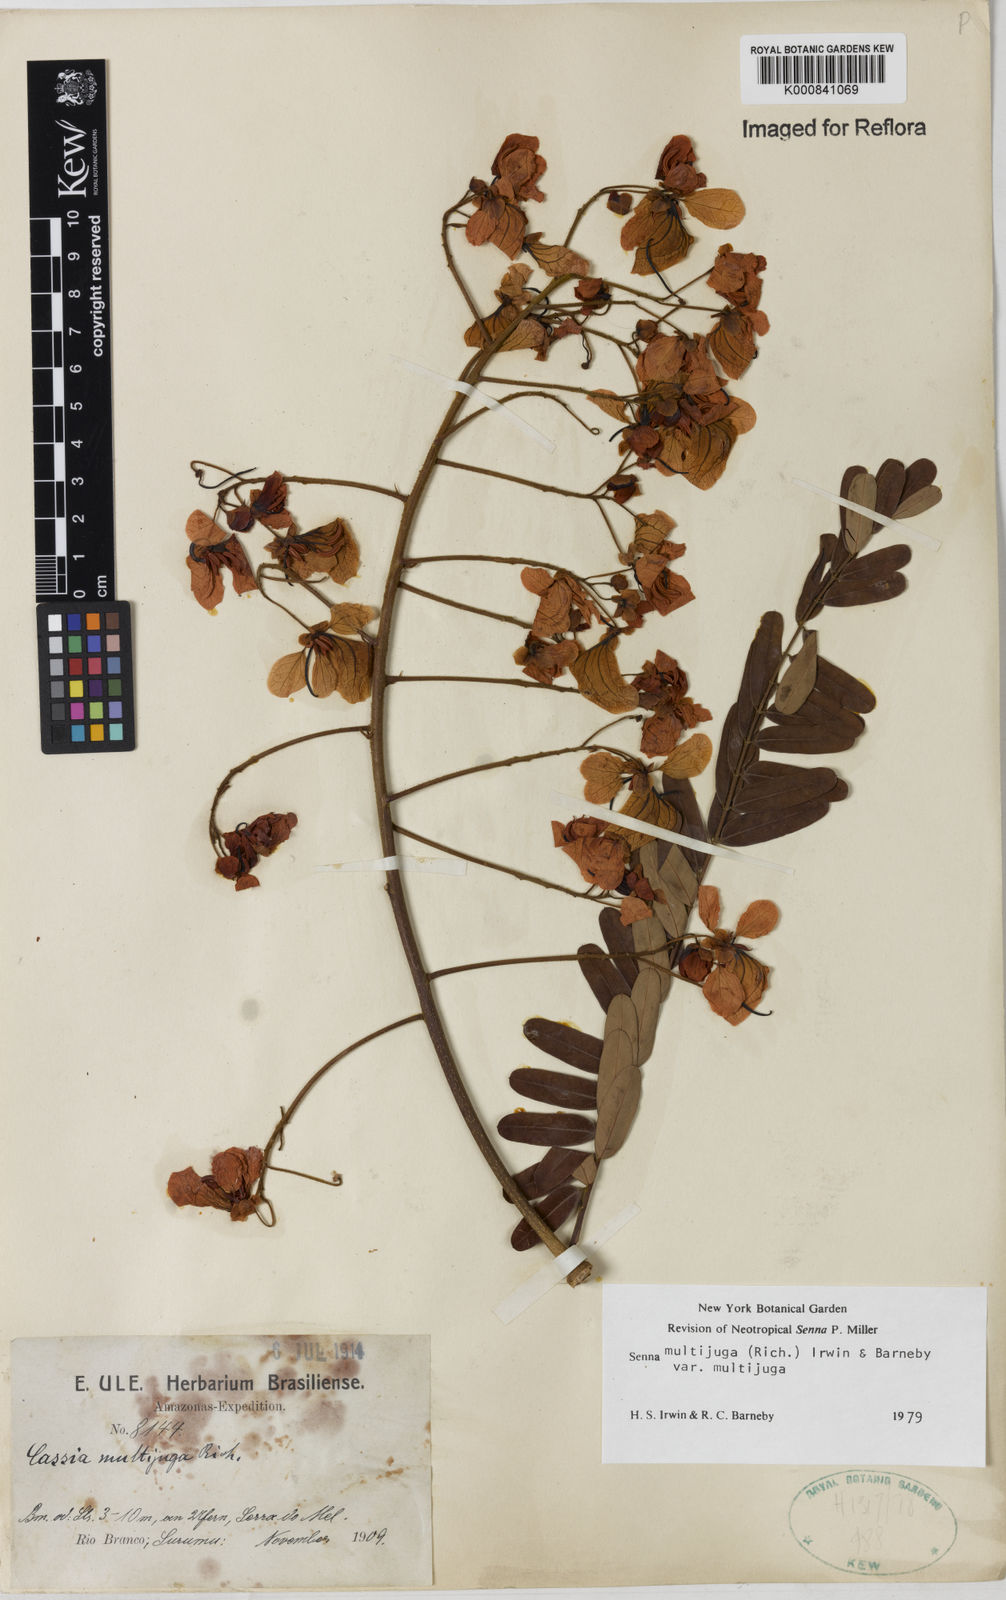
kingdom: Plantae
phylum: Tracheophyta
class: Magnoliopsida
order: Fabales
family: Fabaceae
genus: Senna
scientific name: Senna multijuga
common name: False sicklepod
